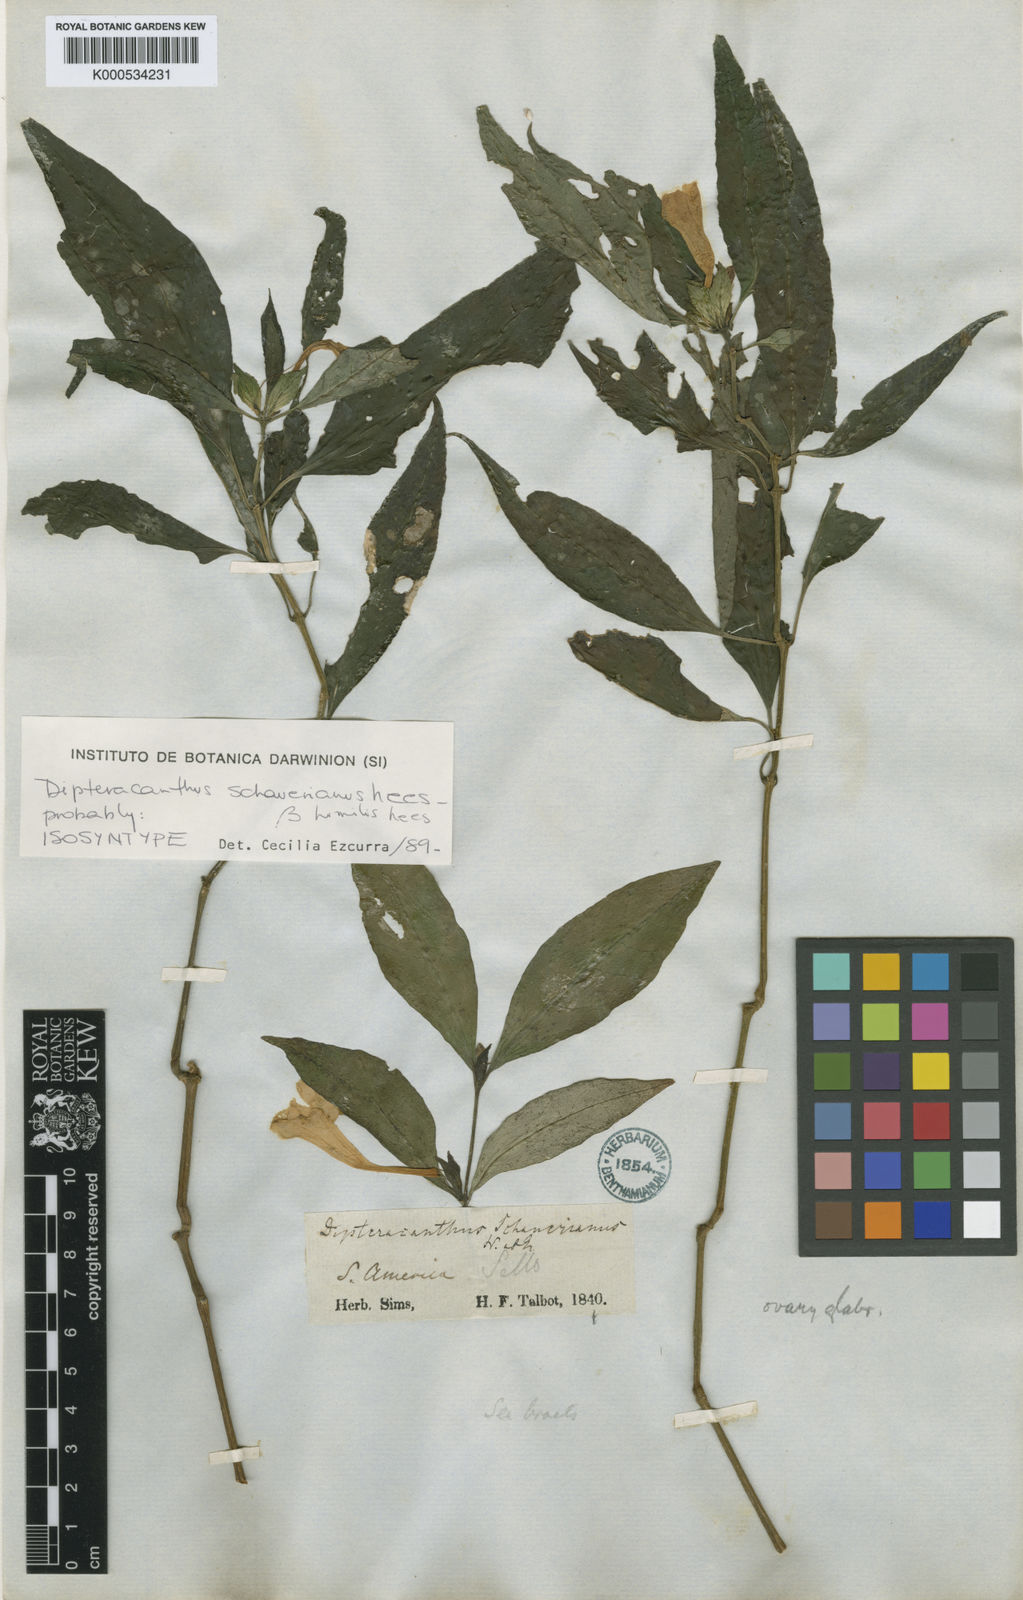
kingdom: Plantae
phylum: Tracheophyta
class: Magnoliopsida
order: Lamiales
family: Acanthaceae
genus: Ruellia
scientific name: Ruellia
